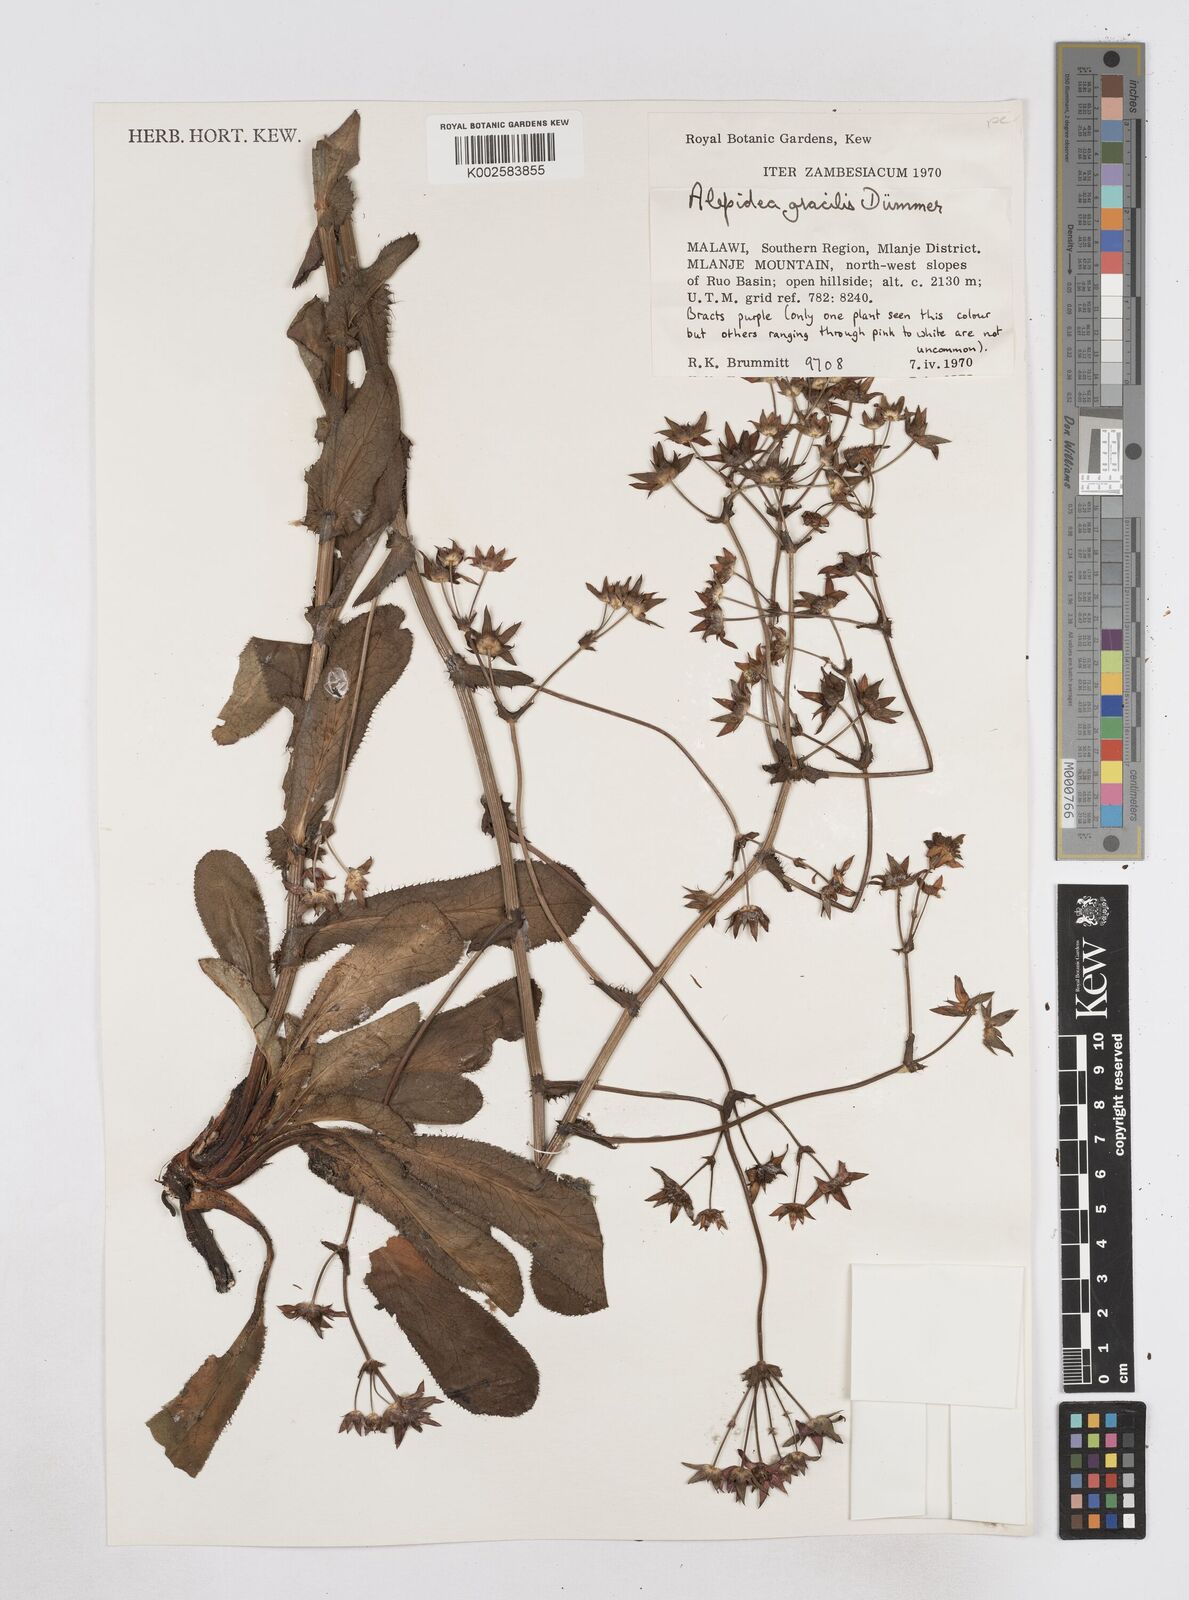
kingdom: Plantae
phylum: Tracheophyta
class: Magnoliopsida
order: Apiales
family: Apiaceae
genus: Alepidea
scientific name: Alepidea peduncularis
